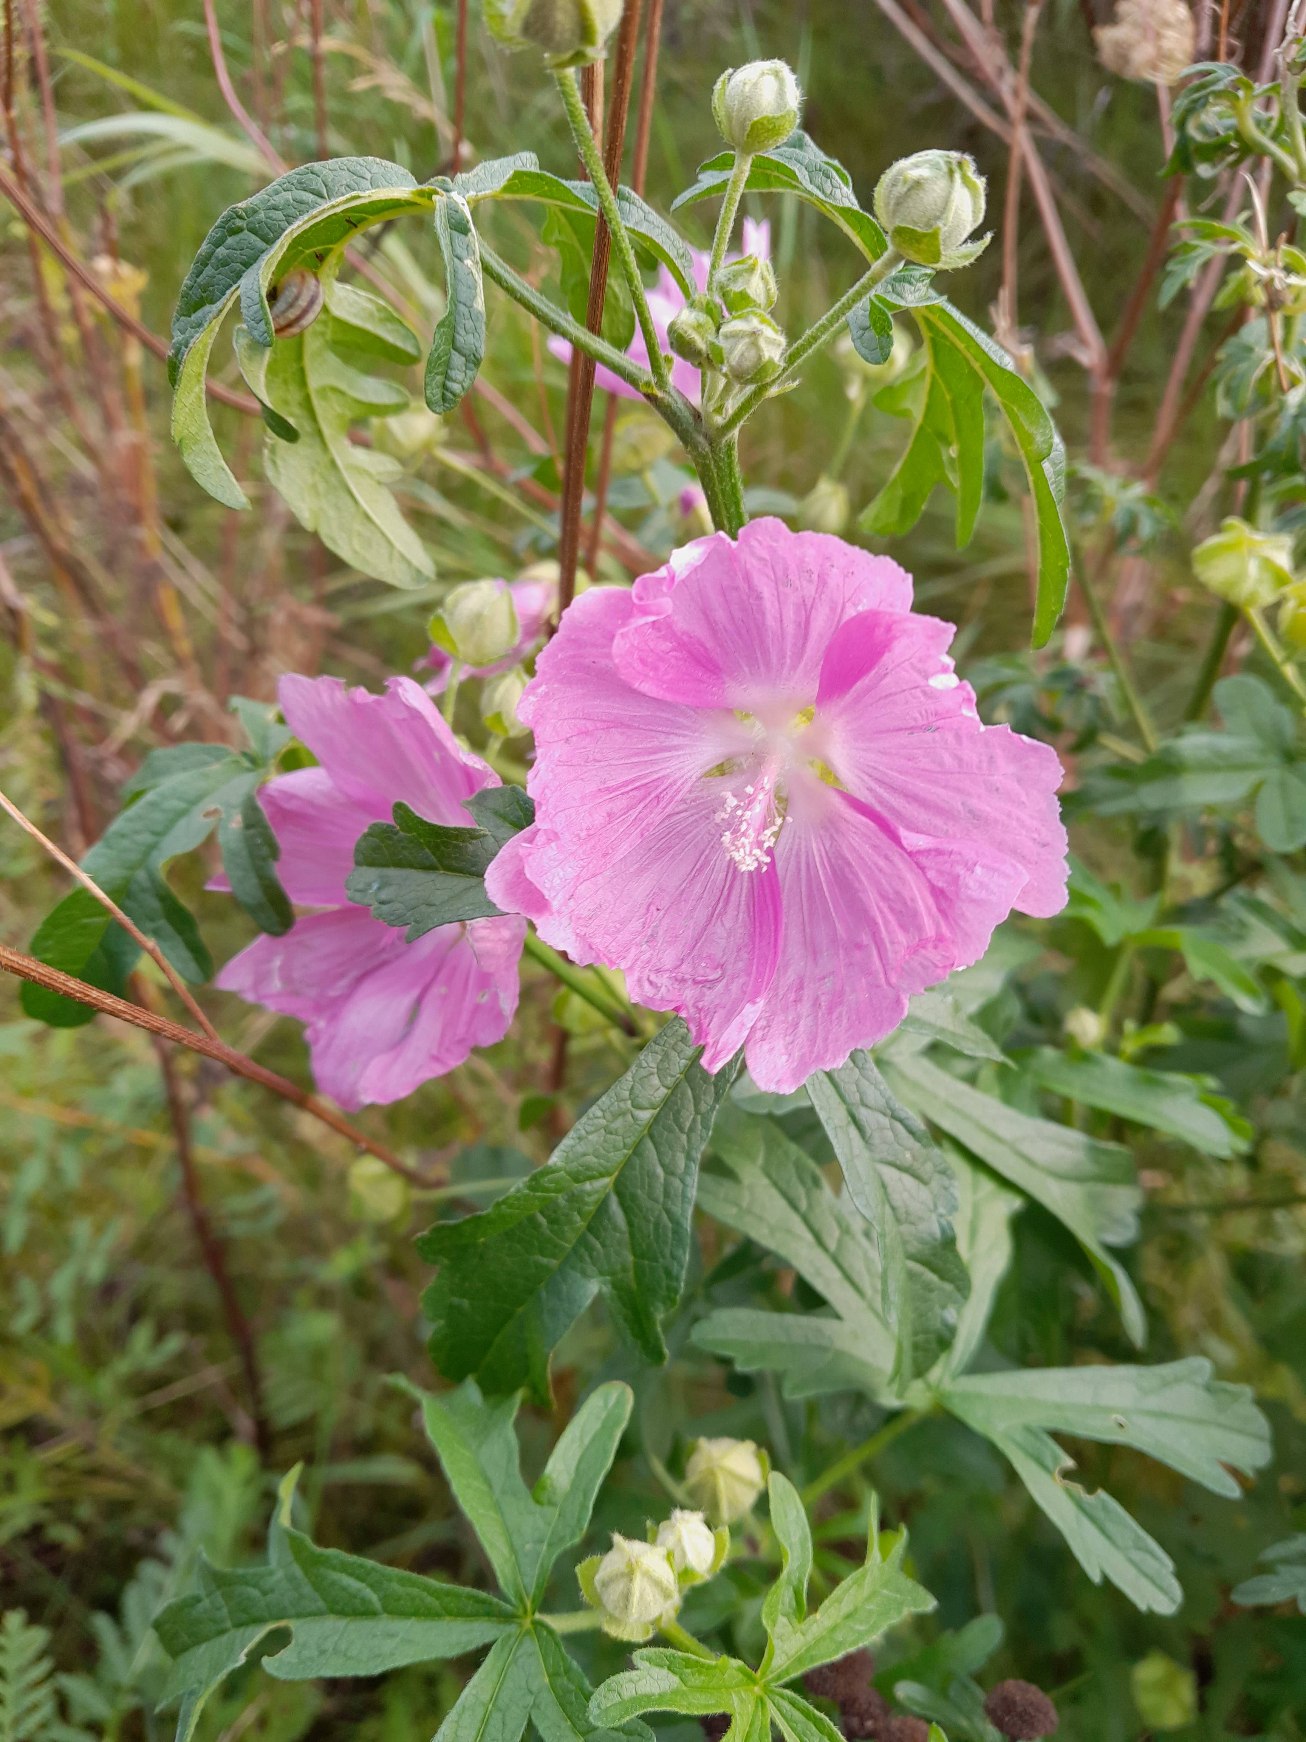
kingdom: Plantae
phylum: Tracheophyta
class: Magnoliopsida
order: Malvales
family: Malvaceae
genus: Malva
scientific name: Malva alcea
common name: Rosen-katost
